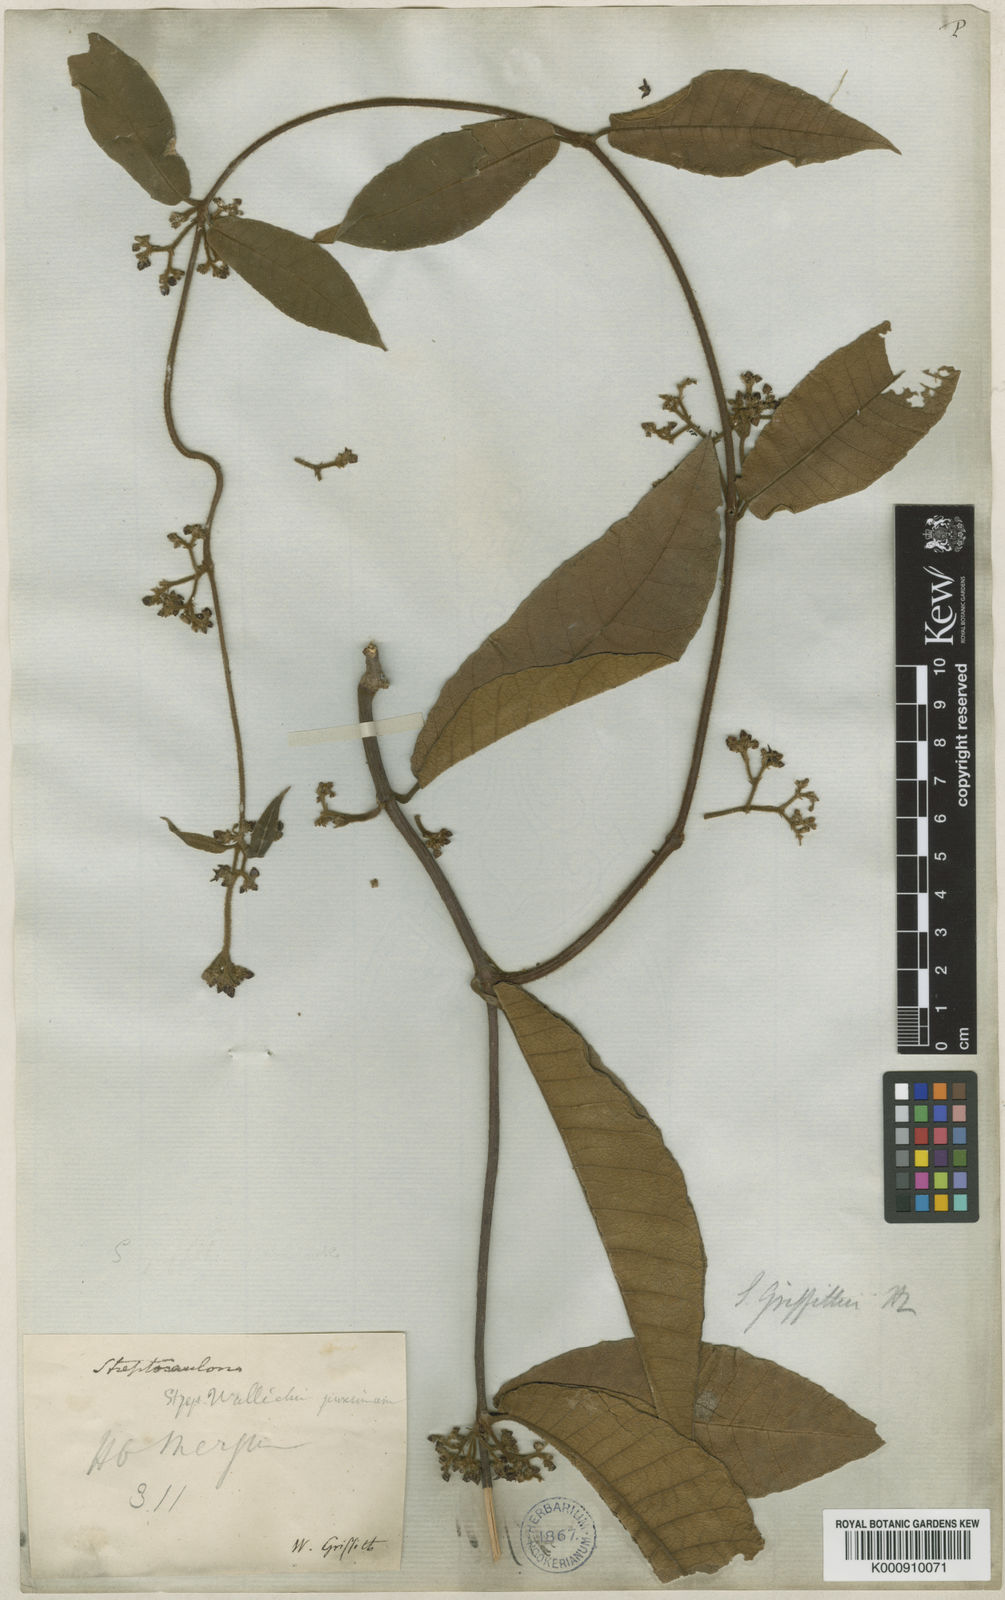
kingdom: Plantae
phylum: Tracheophyta
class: Magnoliopsida
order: Gentianales
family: Apocynaceae
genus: Streptocaulon
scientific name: Streptocaulon juventas
